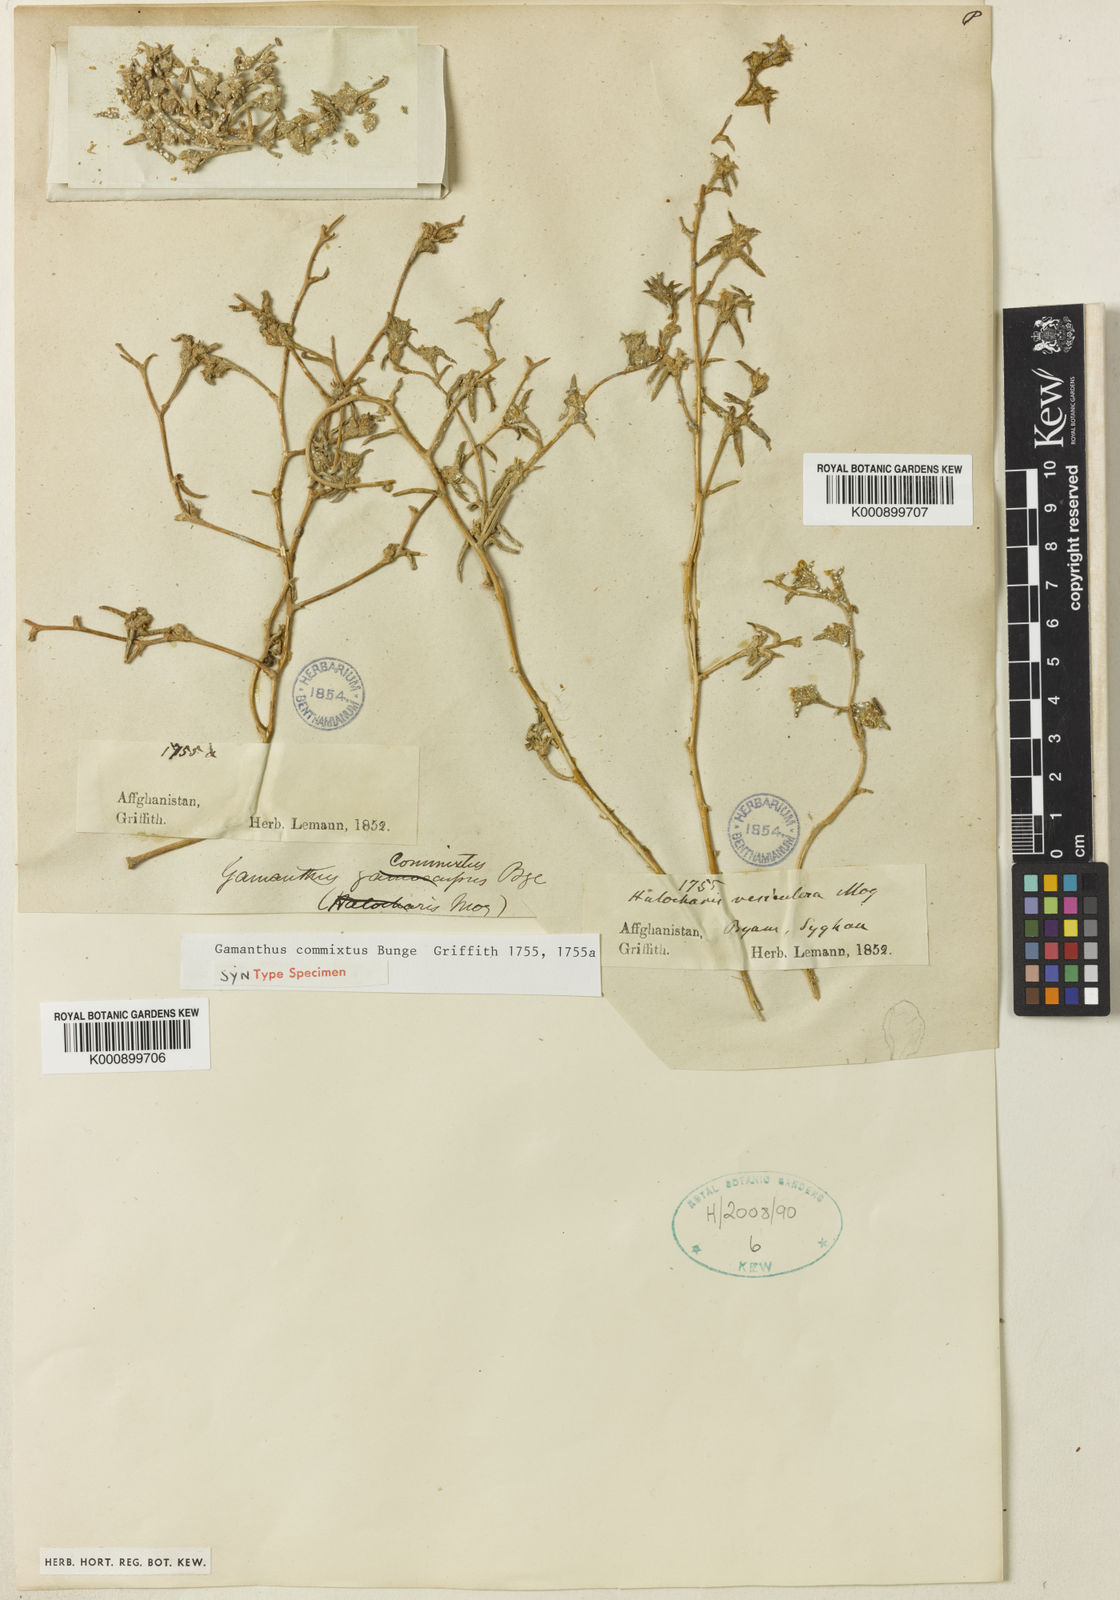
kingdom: Plantae
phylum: Tracheophyta
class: Magnoliopsida
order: Caryophyllales
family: Amaranthaceae
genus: Halimocnemis
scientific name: Halimocnemis commixtus
